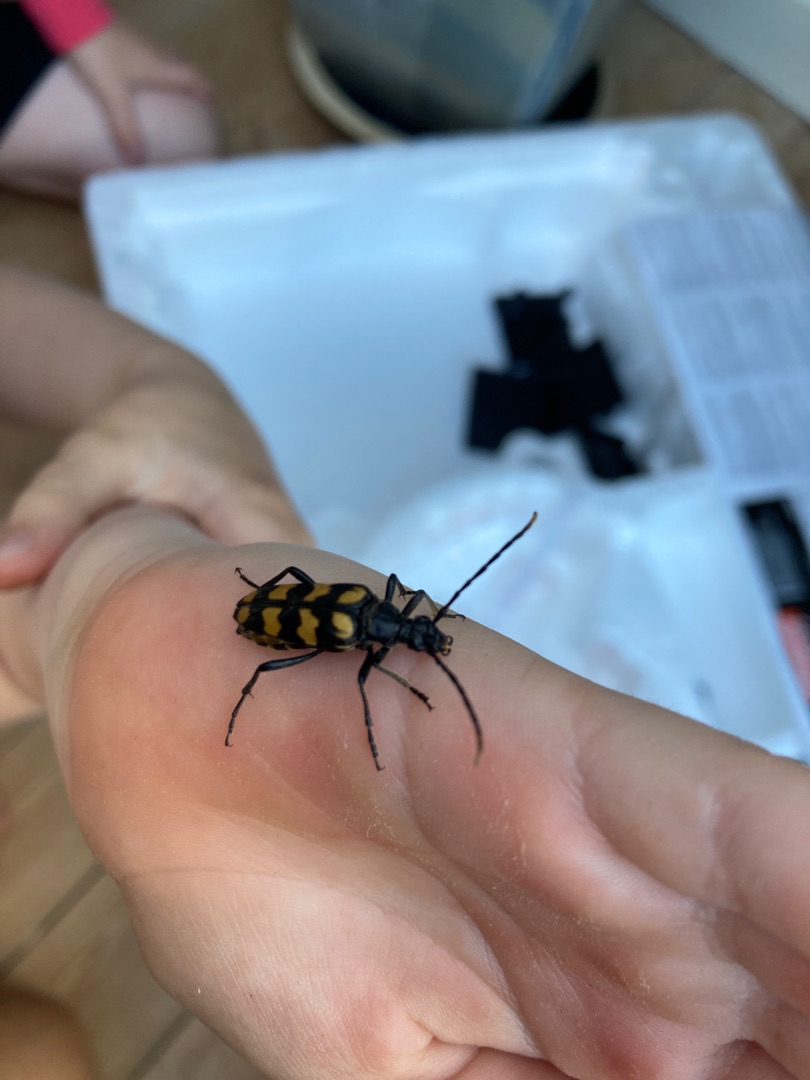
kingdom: Animalia
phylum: Arthropoda
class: Insecta
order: Coleoptera
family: Cerambycidae
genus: Leptura
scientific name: Leptura quadrifasciata
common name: Firebåndet blomsterbuk
